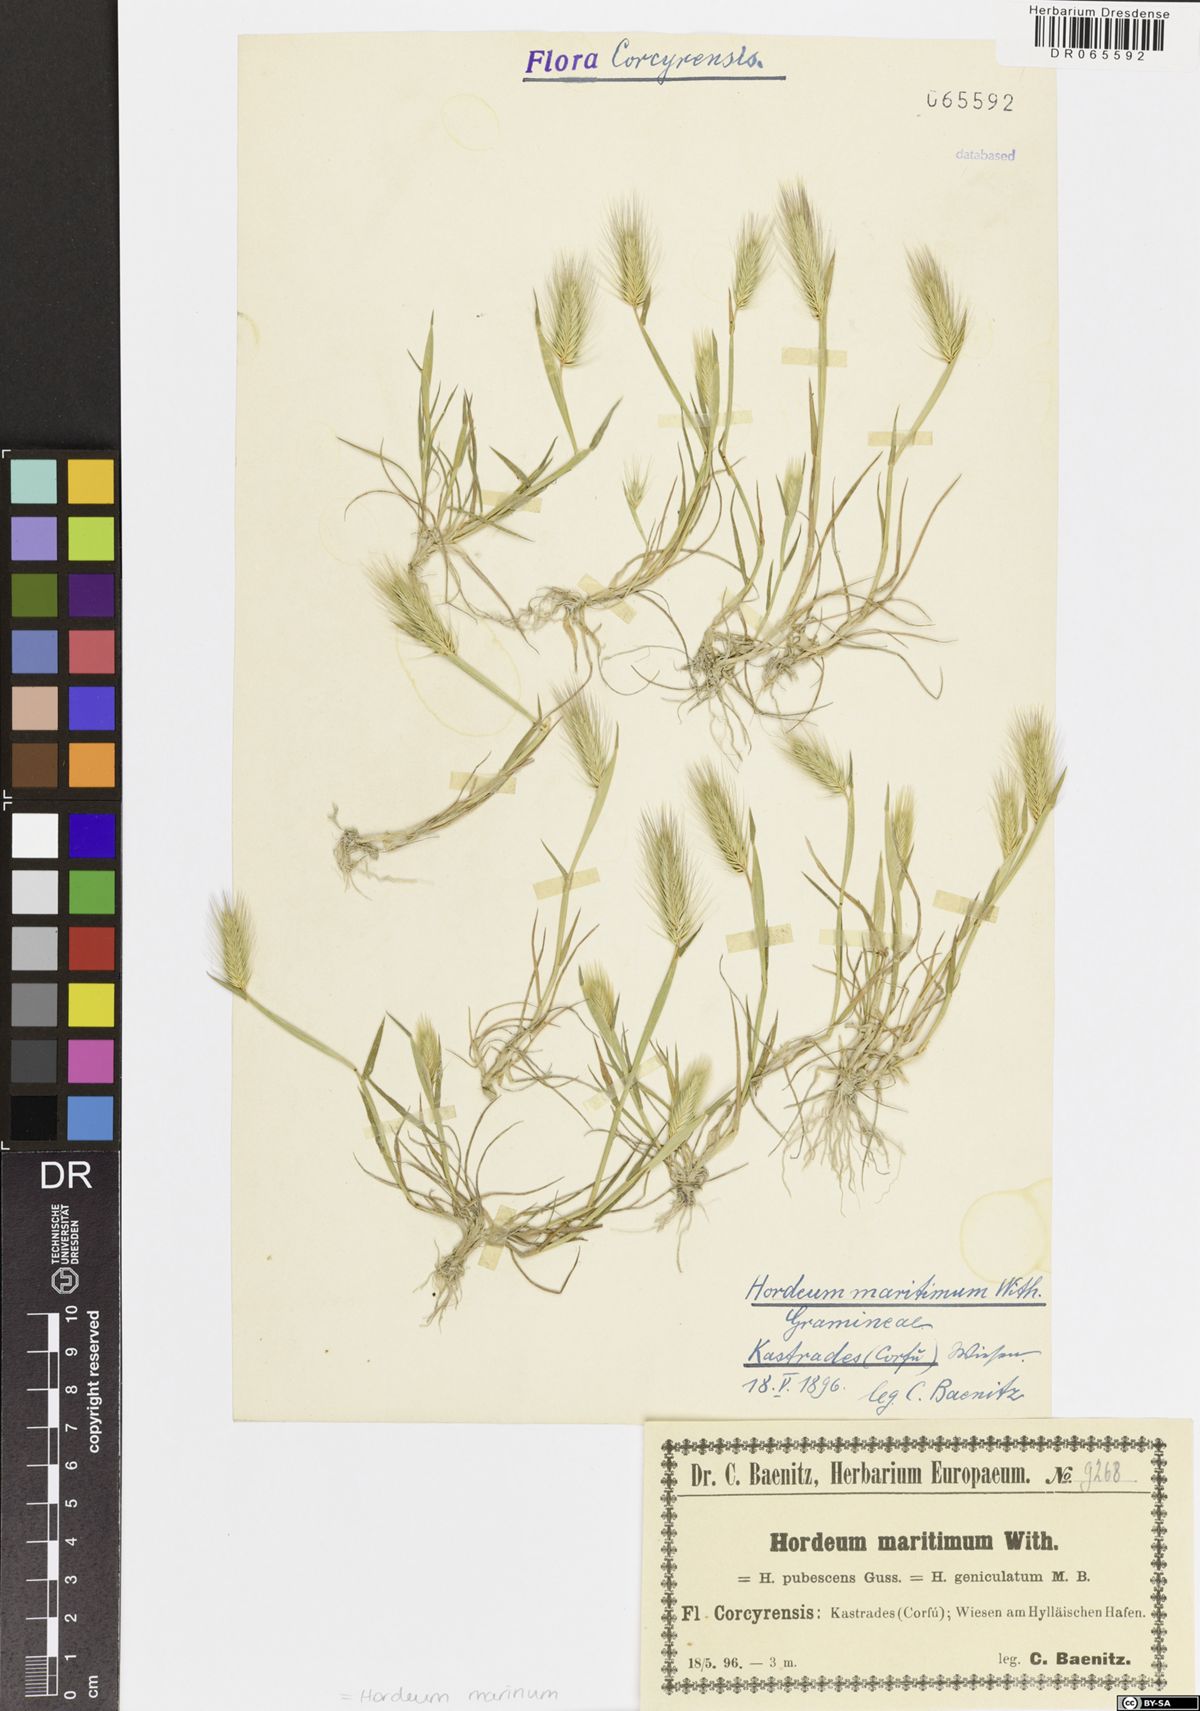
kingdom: Plantae
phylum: Tracheophyta
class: Liliopsida
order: Poales
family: Poaceae
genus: Hordeum
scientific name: Hordeum marinum
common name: Sea barley
